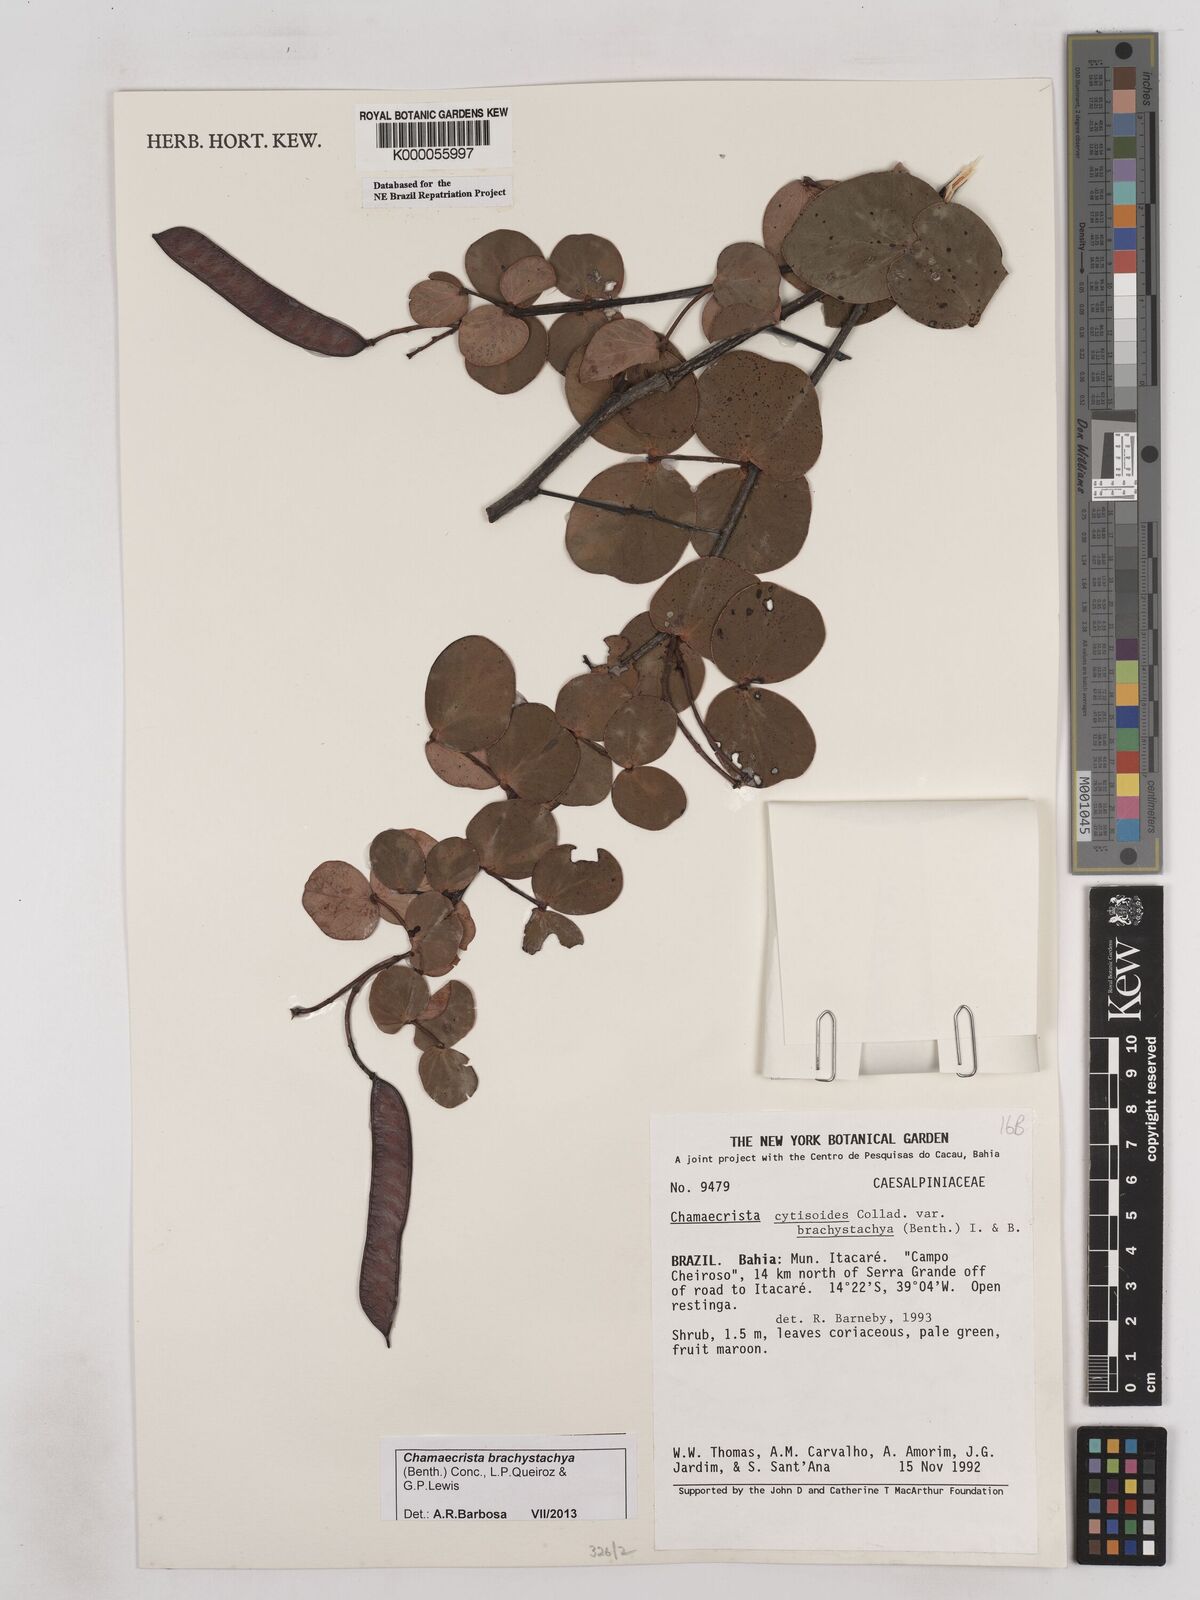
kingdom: Plantae
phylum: Tracheophyta
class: Magnoliopsida
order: Fabales
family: Fabaceae
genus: Chamaecrista
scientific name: Chamaecrista cytisoides
